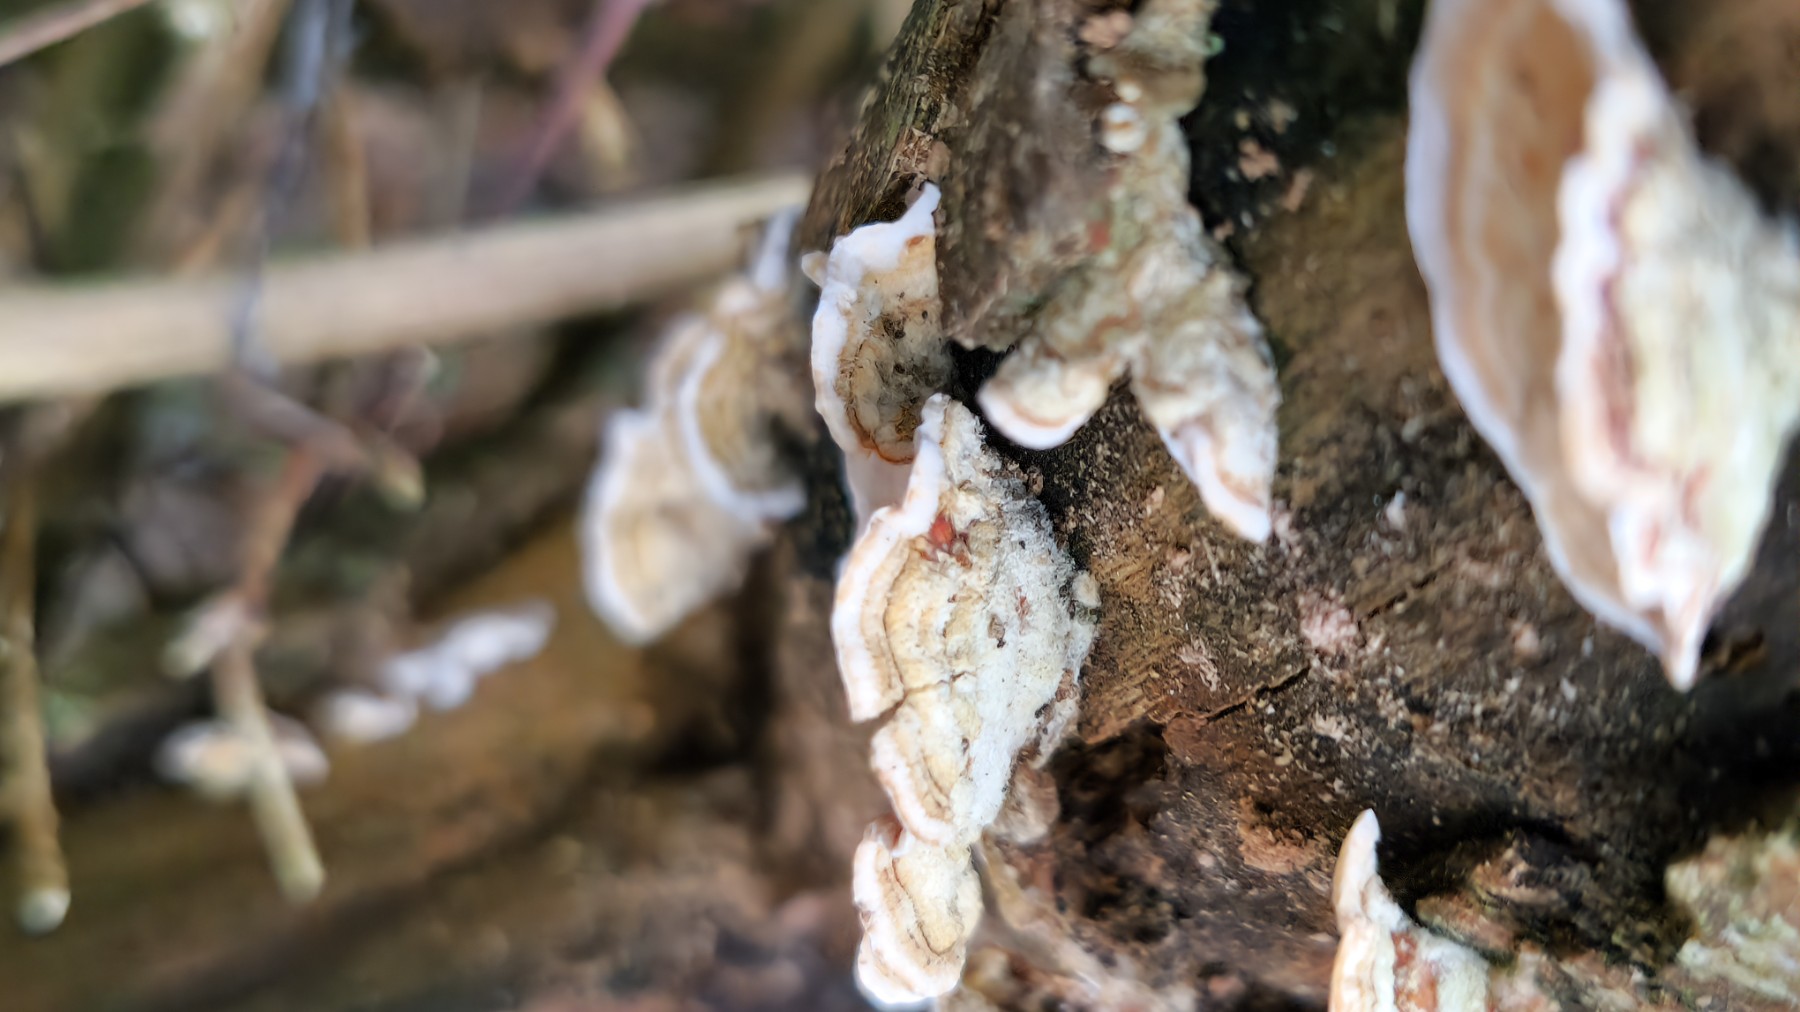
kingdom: Fungi
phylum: Basidiomycota
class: Agaricomycetes
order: Russulales
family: Stereaceae
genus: Stereum
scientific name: Stereum subtomentosum
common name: smuk lædersvamp
